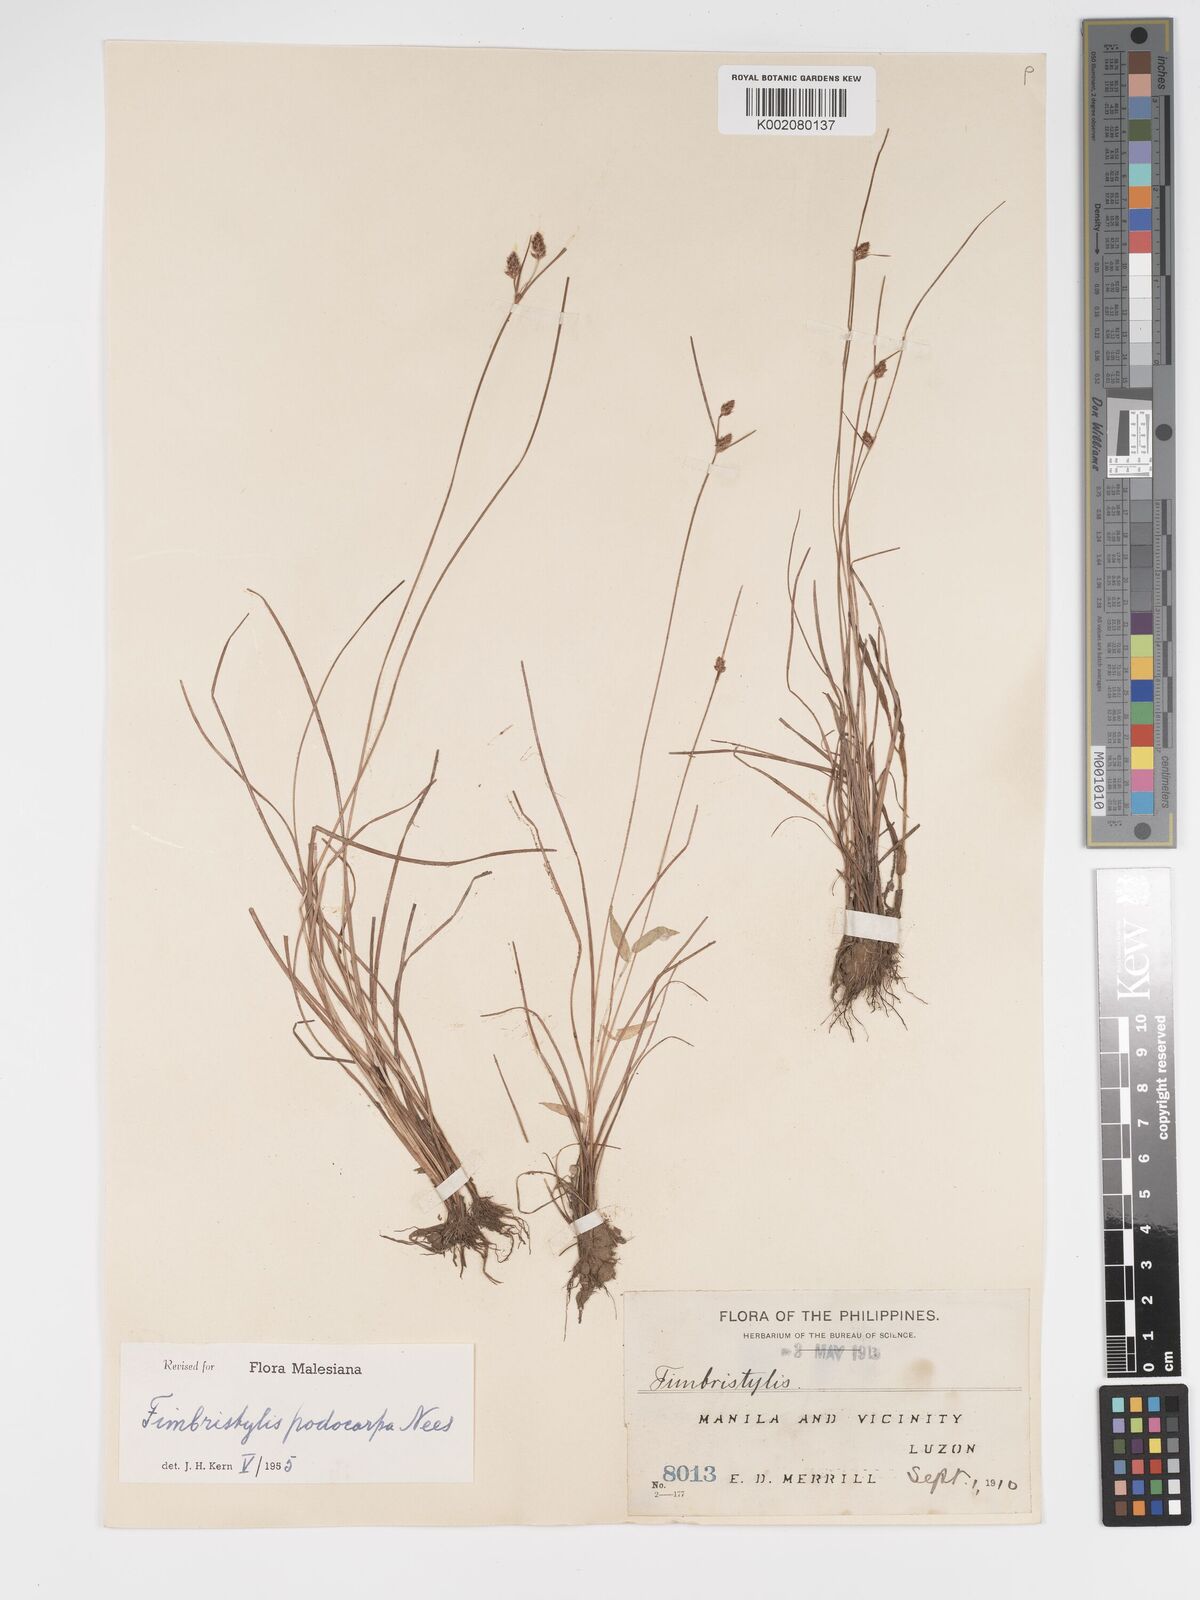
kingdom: Plantae
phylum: Tracheophyta
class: Liliopsida
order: Poales
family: Cyperaceae
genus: Fimbristylis
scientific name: Fimbristylis dichotoma
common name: Forked fimbry
